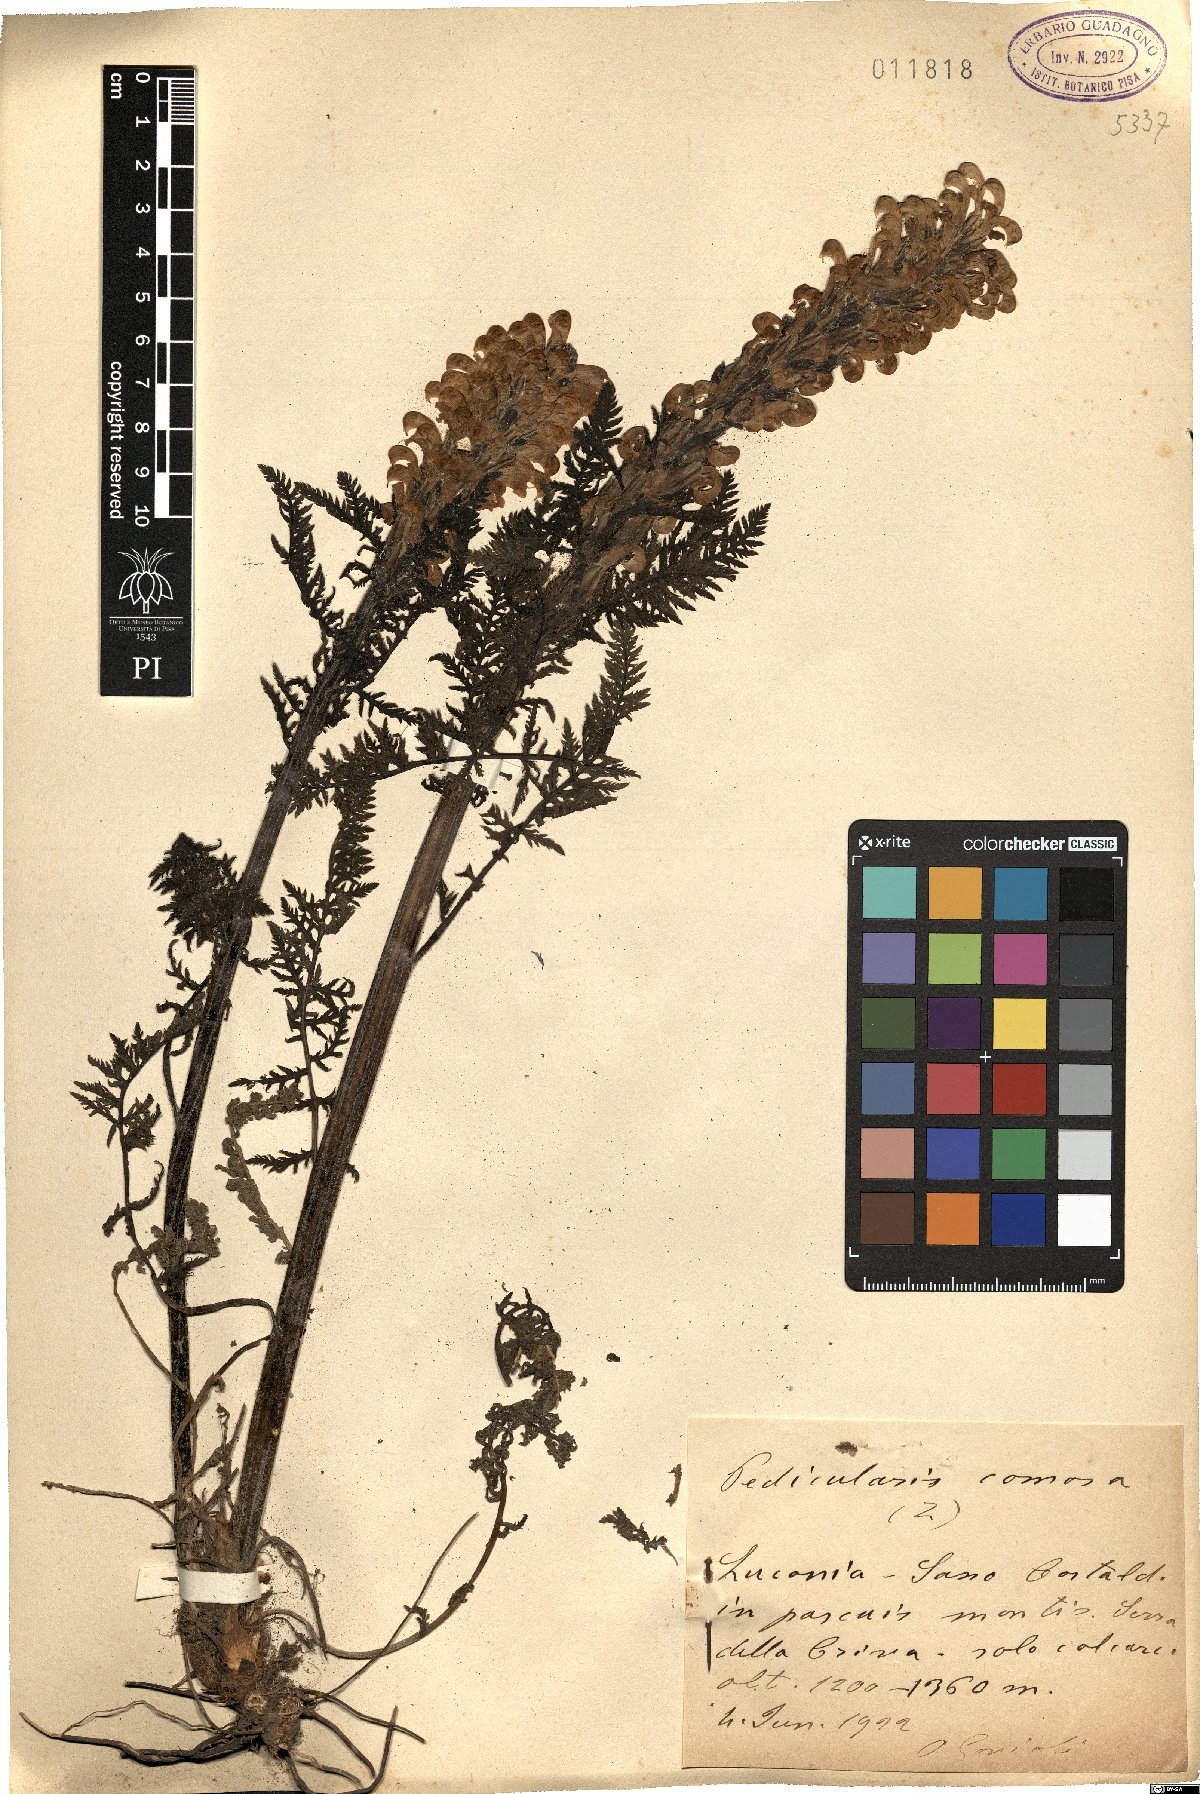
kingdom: Plantae
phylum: Tracheophyta
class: Magnoliopsida
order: Lamiales
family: Orobanchaceae
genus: Pedicularis
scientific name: Pedicularis comosa
